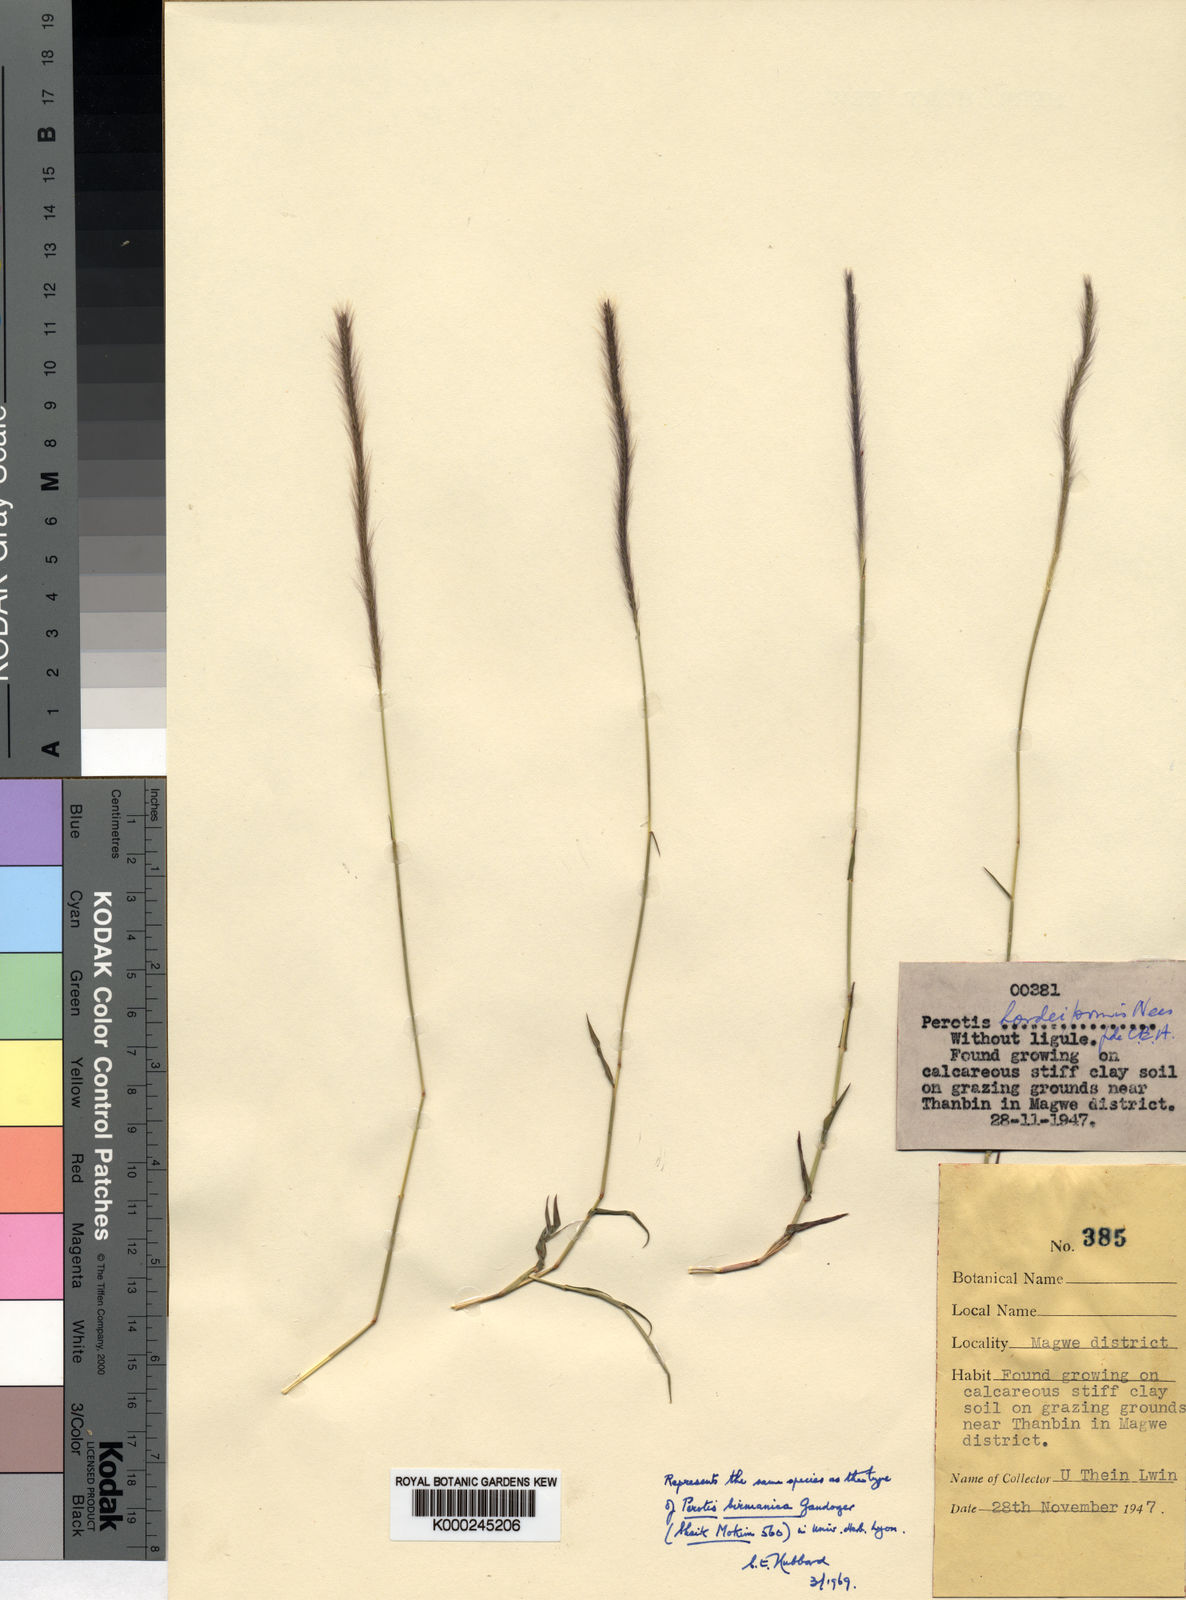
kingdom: Plantae
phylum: Tracheophyta
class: Liliopsida
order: Poales
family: Poaceae
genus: Perotis
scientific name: Perotis hordeiformis
